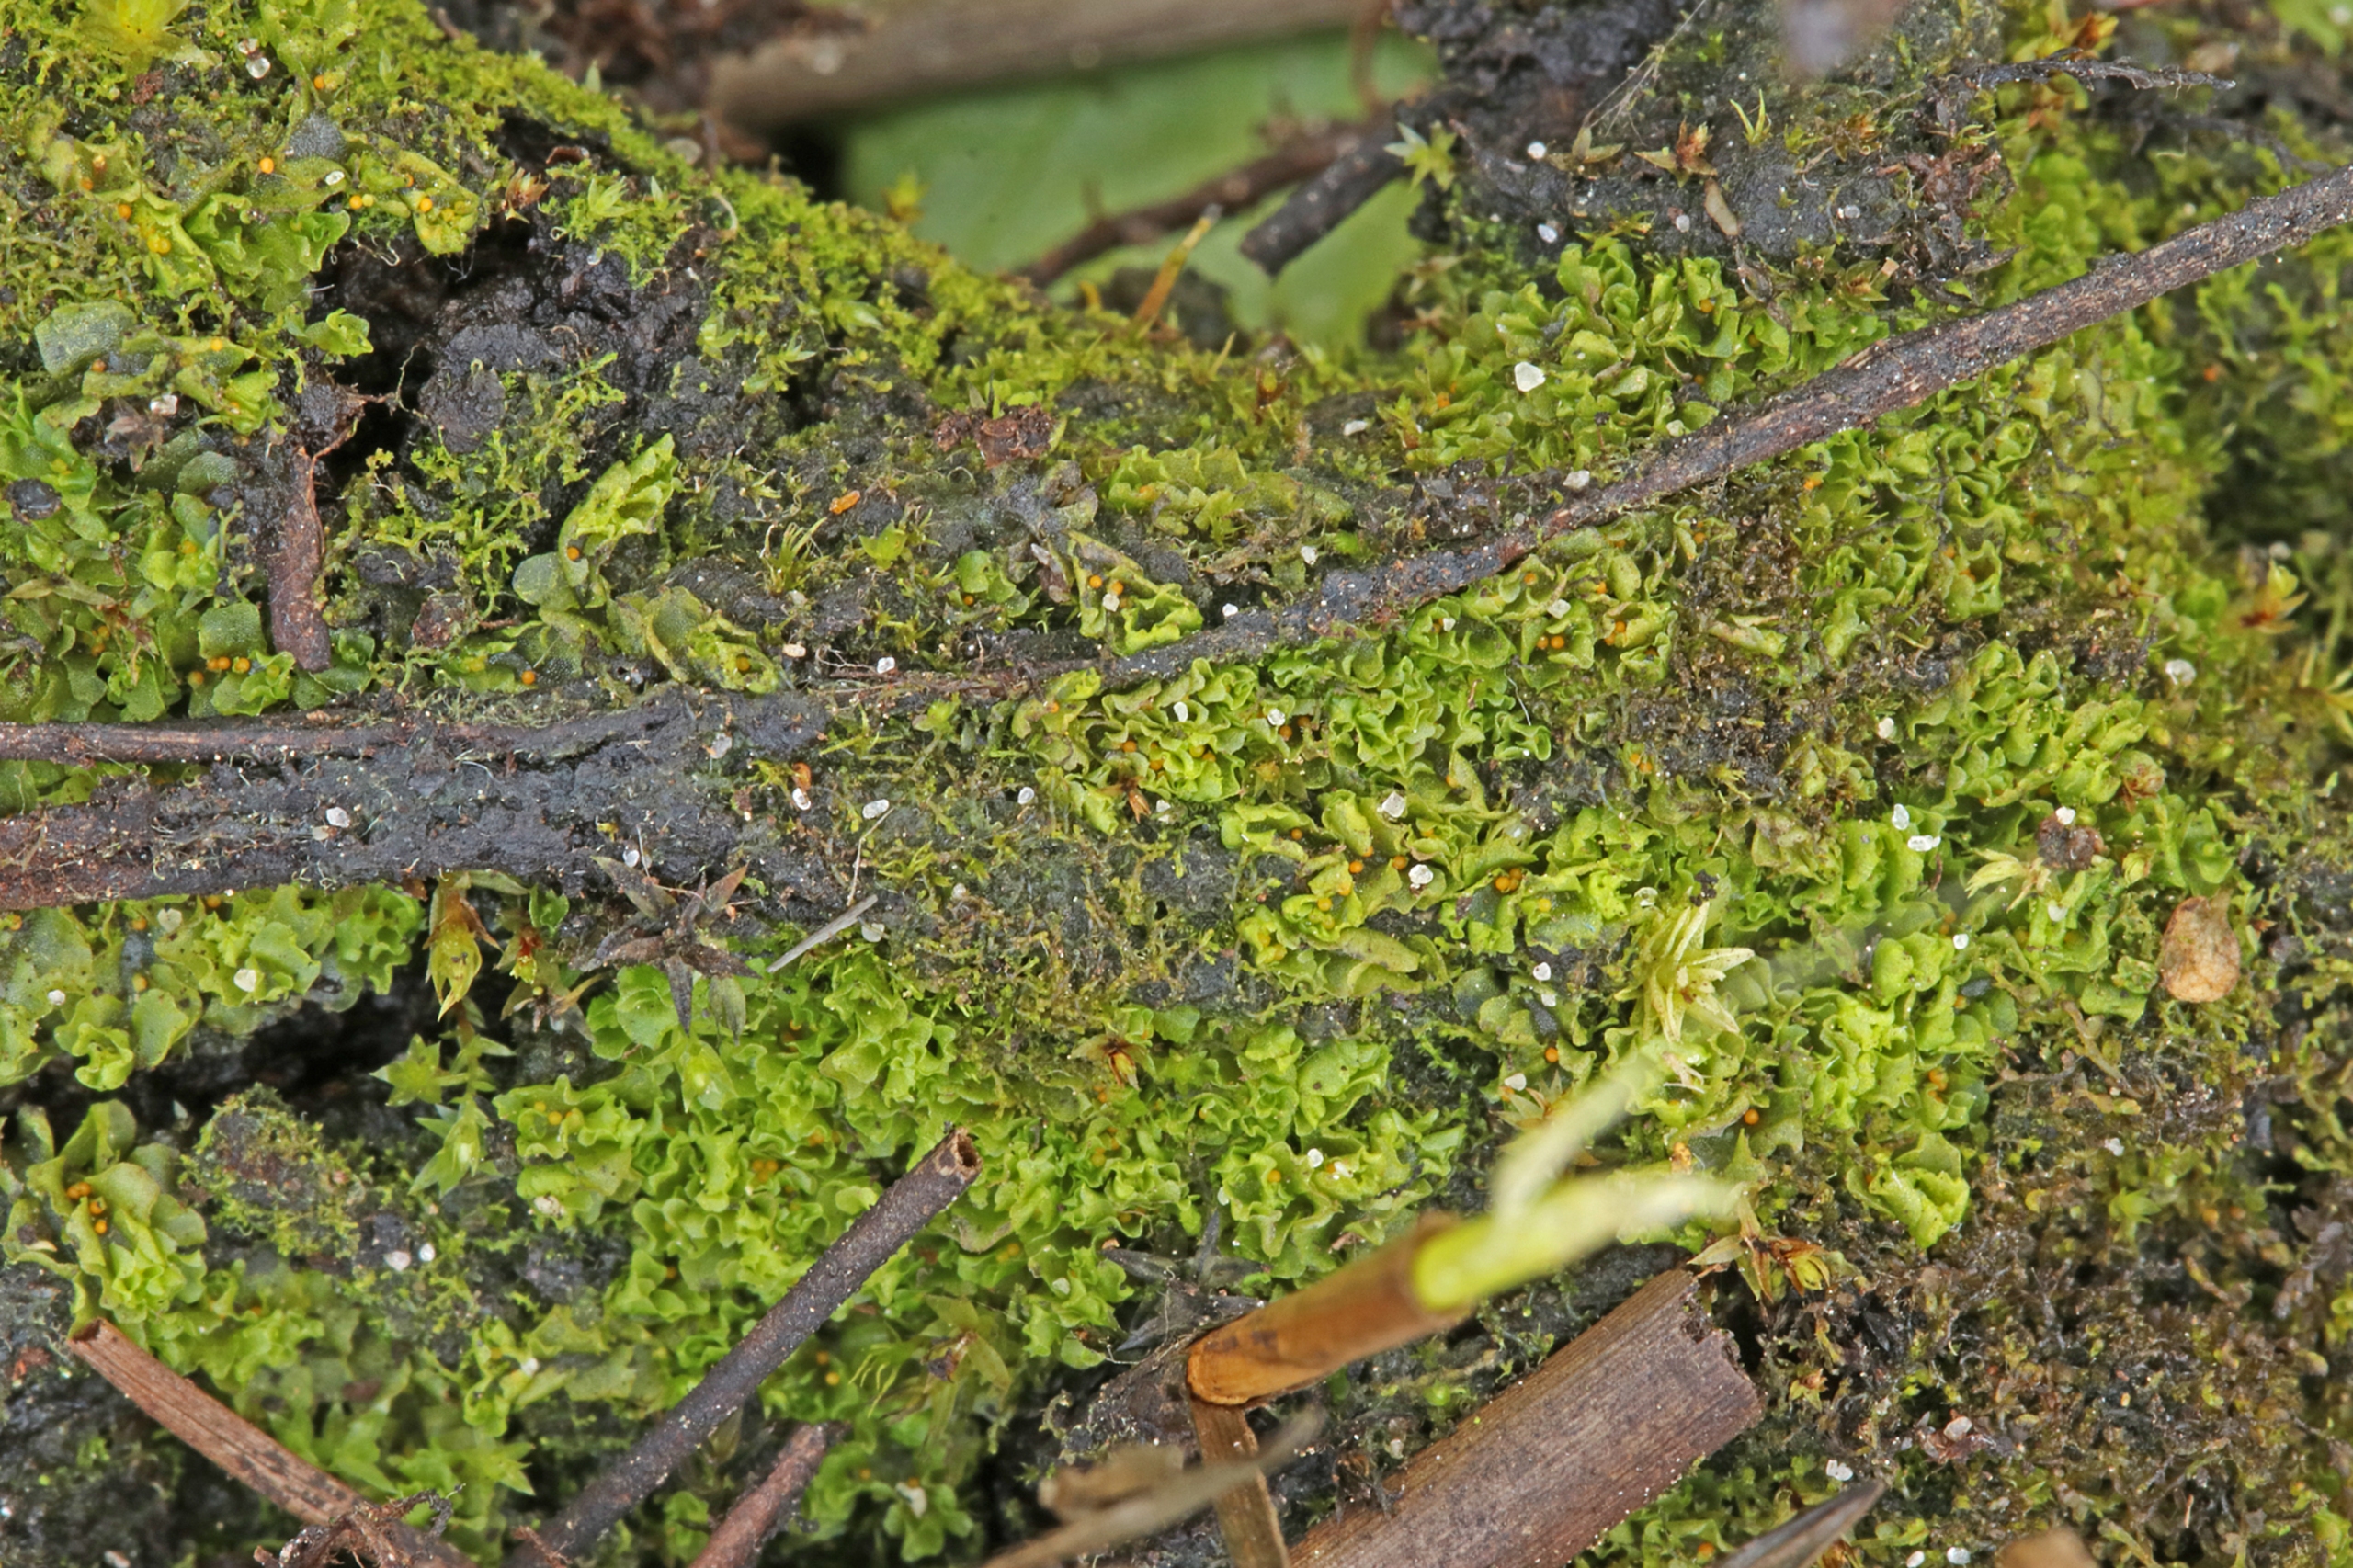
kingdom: Plantae
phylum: Marchantiophyta
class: Jungermanniopsida
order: Fossombroniales
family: Fossombroniaceae
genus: Fossombronia
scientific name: Fossombronia foveolata
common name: Netsporet klokkesvøb
